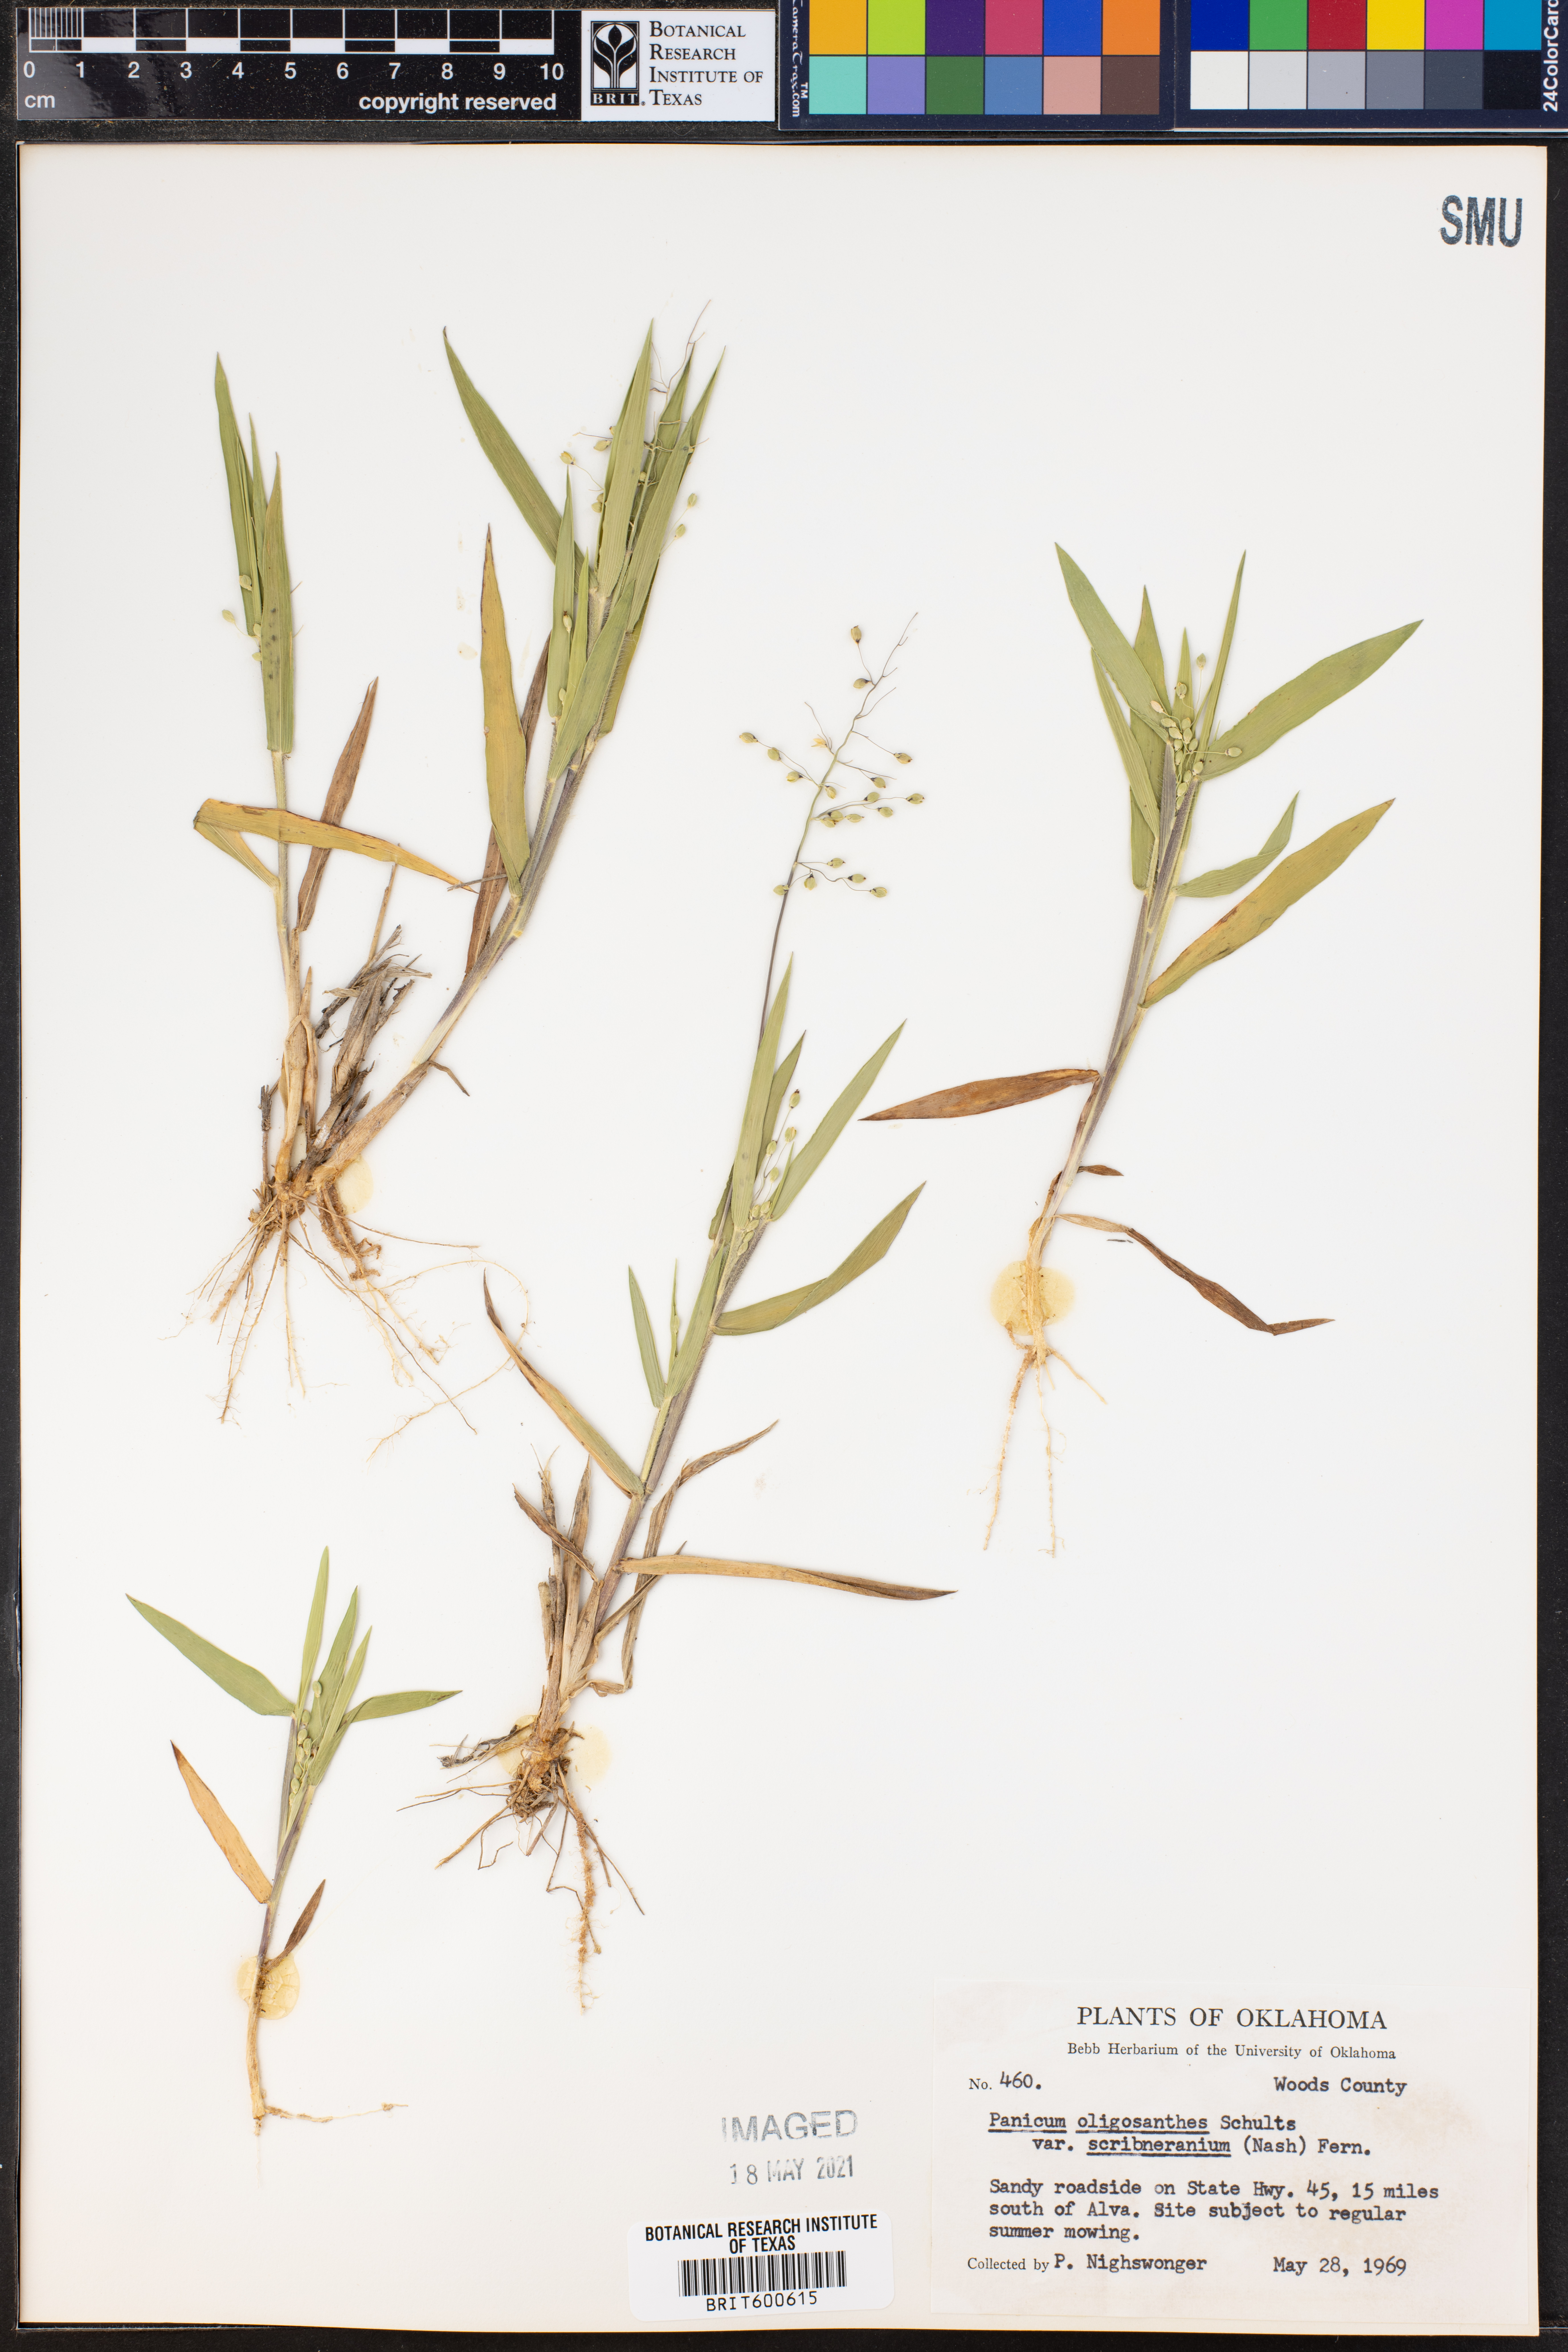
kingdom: Plantae
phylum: Tracheophyta
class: Liliopsida
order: Poales
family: Poaceae
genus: Dichanthelium
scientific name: Dichanthelium scribnerianum
